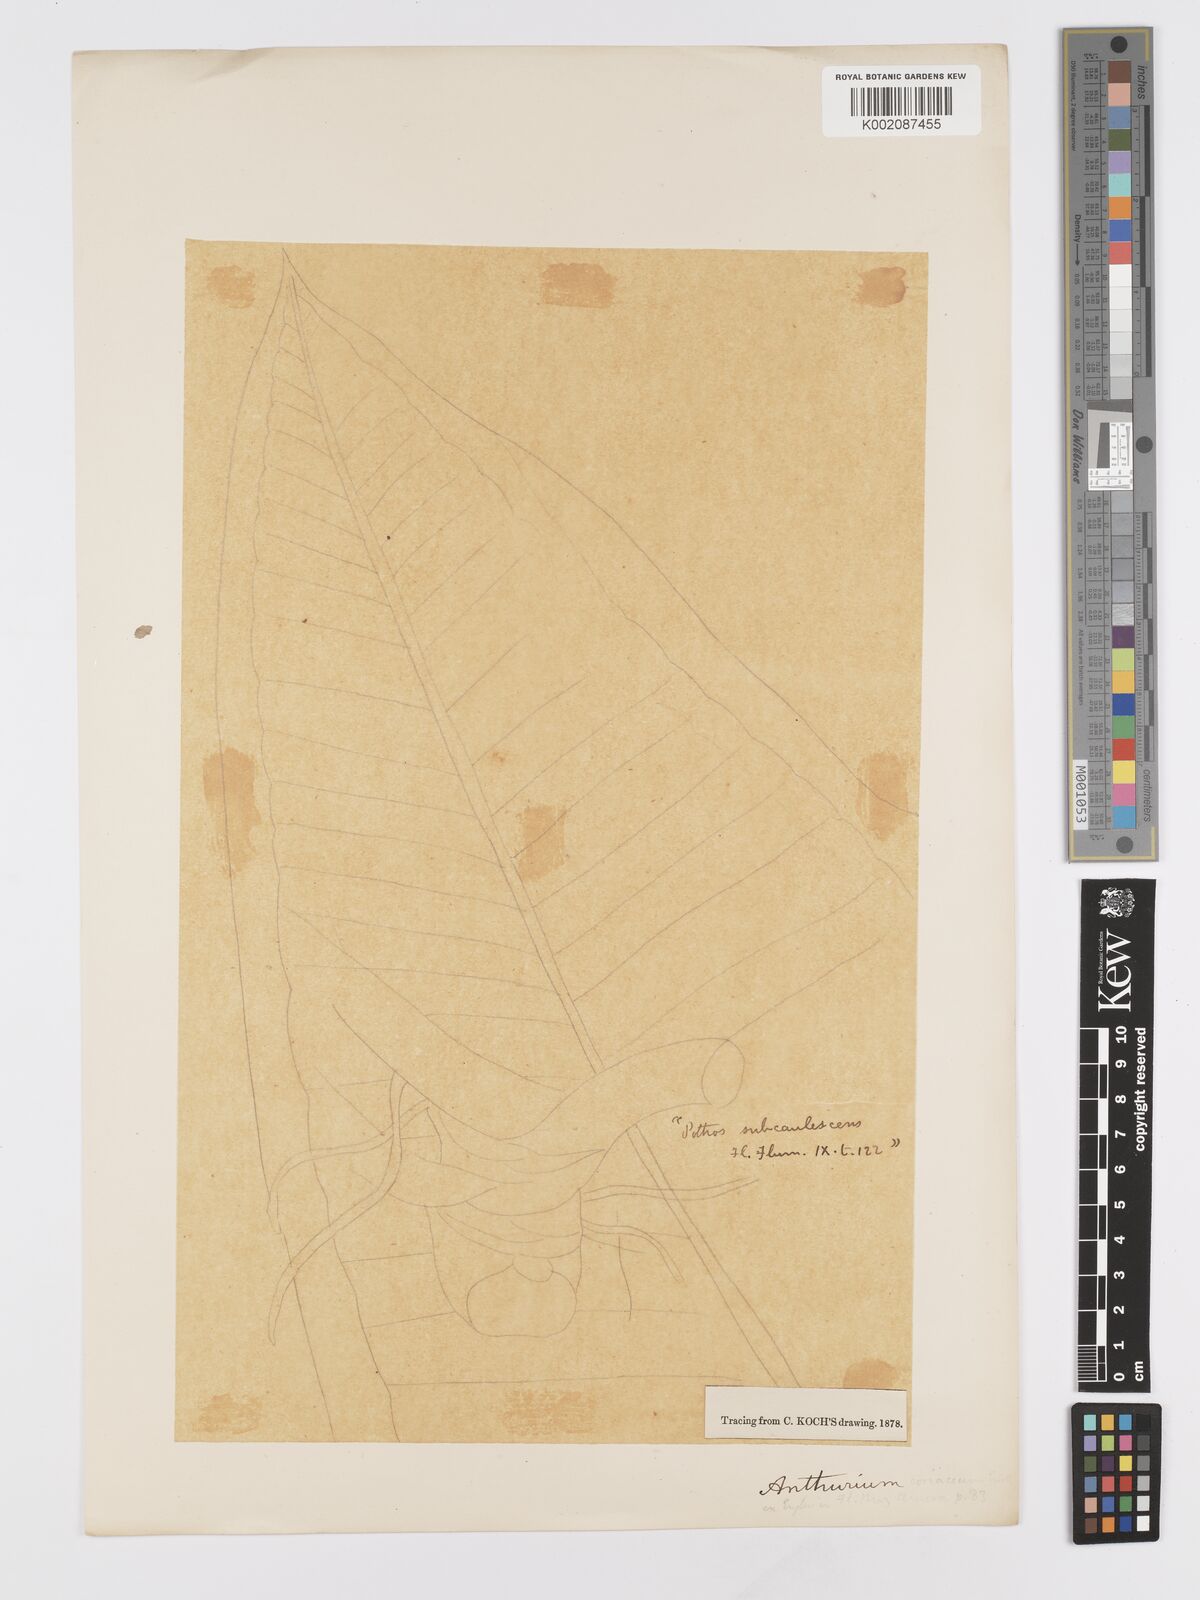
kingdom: Plantae
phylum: Tracheophyta
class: Liliopsida
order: Alismatales
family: Araceae
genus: Anthurium
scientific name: Anthurium
